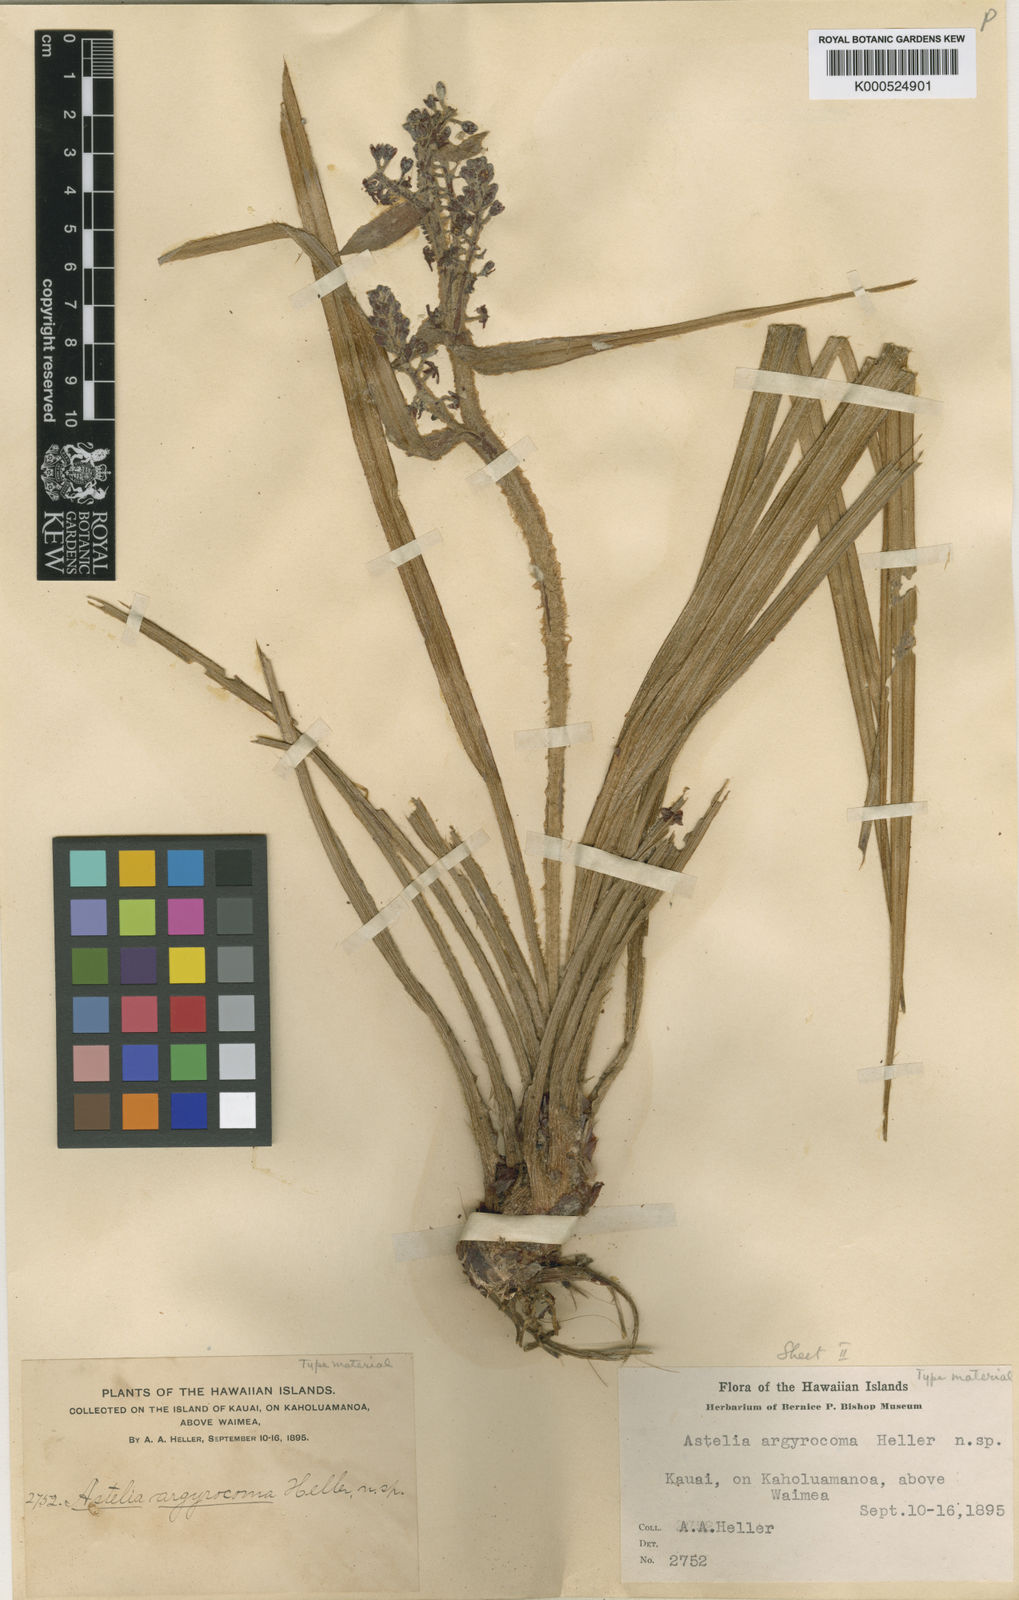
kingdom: Plantae
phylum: Tracheophyta
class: Liliopsida
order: Asparagales
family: Asteliaceae
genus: Astelia
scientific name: Astelia argyrocoma
